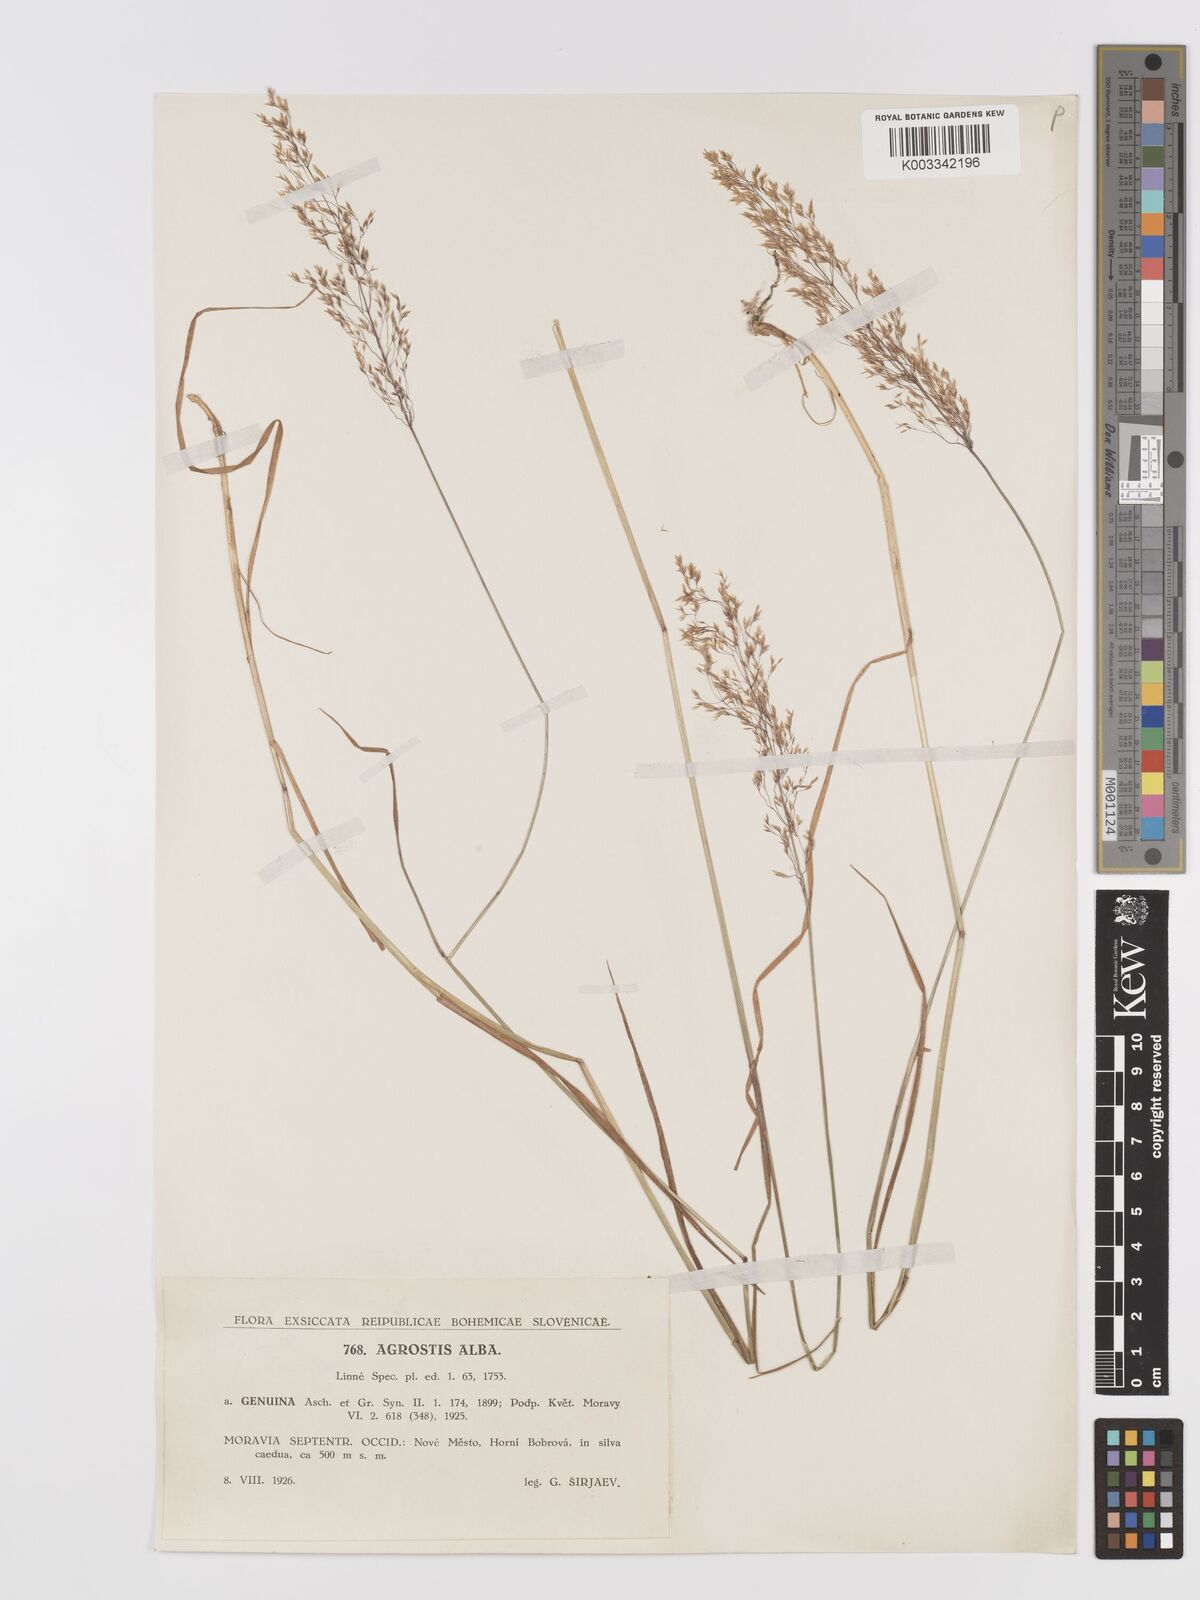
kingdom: Plantae
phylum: Tracheophyta
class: Liliopsida
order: Poales
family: Poaceae
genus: Agrostis
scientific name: Agrostis stolonifera
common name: Creeping bentgrass
